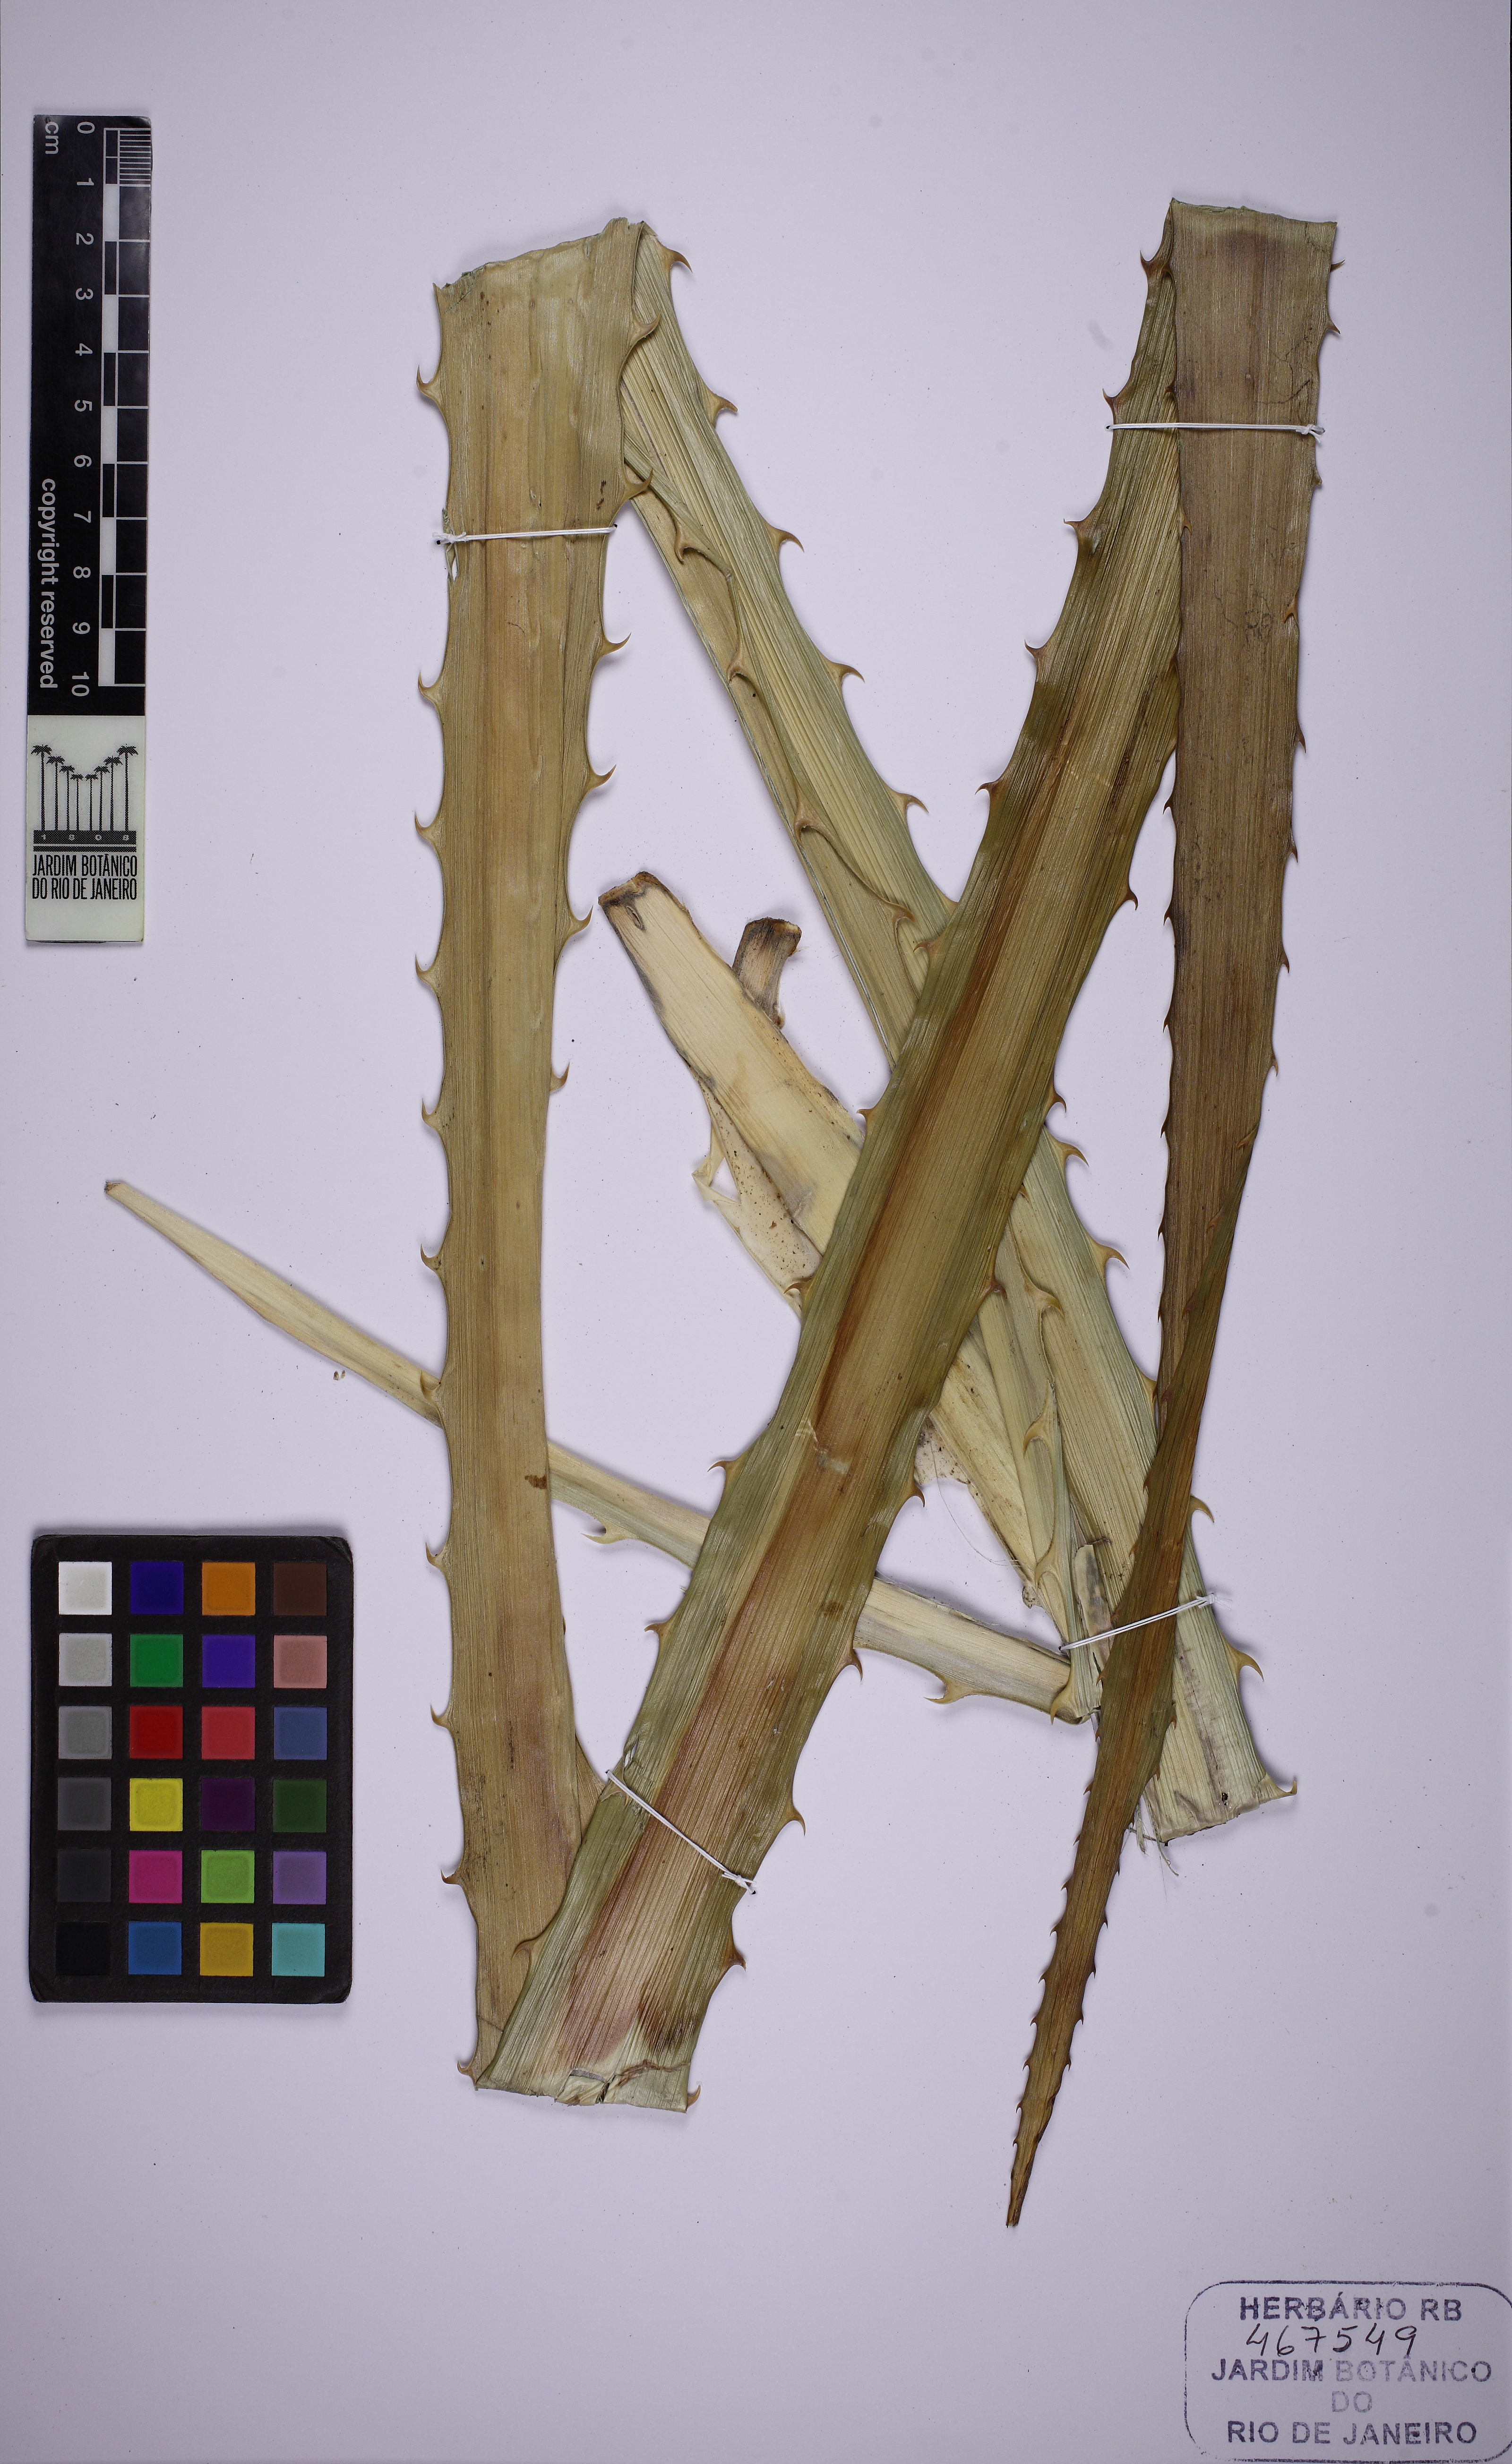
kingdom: Plantae
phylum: Tracheophyta
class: Liliopsida
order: Poales
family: Bromeliaceae
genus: Ananas
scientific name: Ananas comosus
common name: Pineapple
